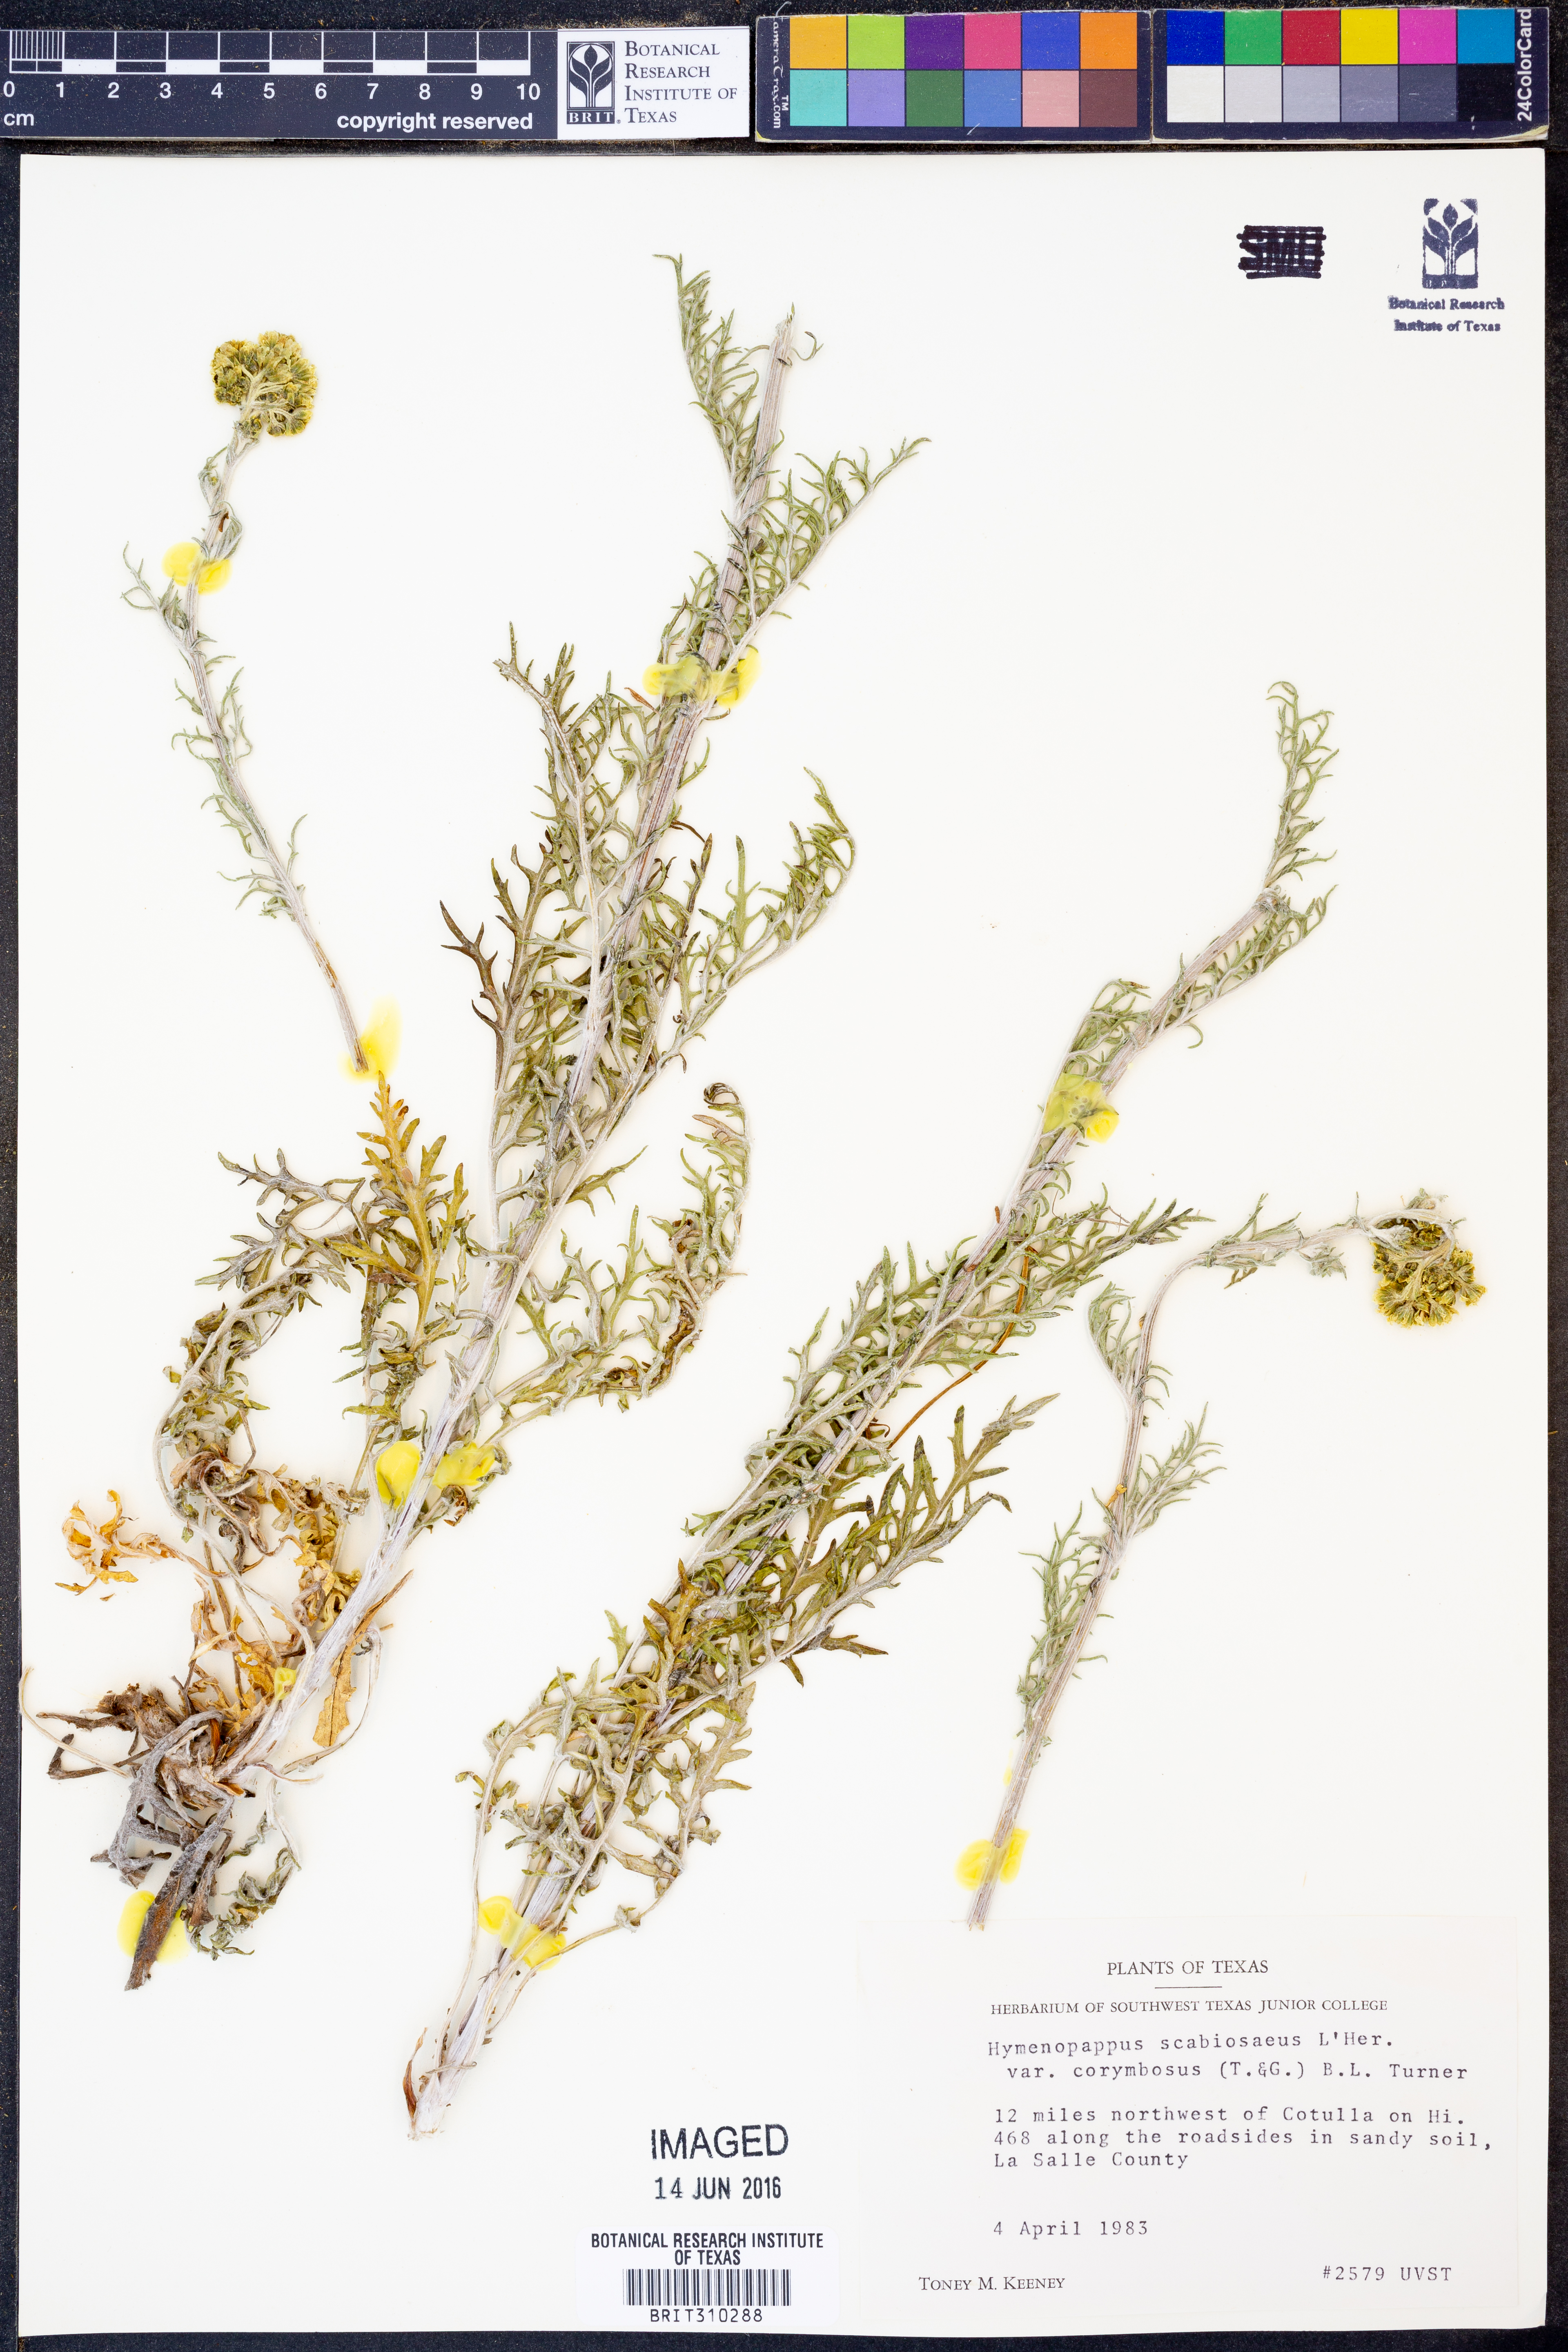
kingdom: Plantae
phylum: Tracheophyta
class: Magnoliopsida
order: Asterales
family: Asteraceae
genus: Hymenopappus
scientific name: Hymenopappus scabiosaeus
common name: Carolina woollywhite
